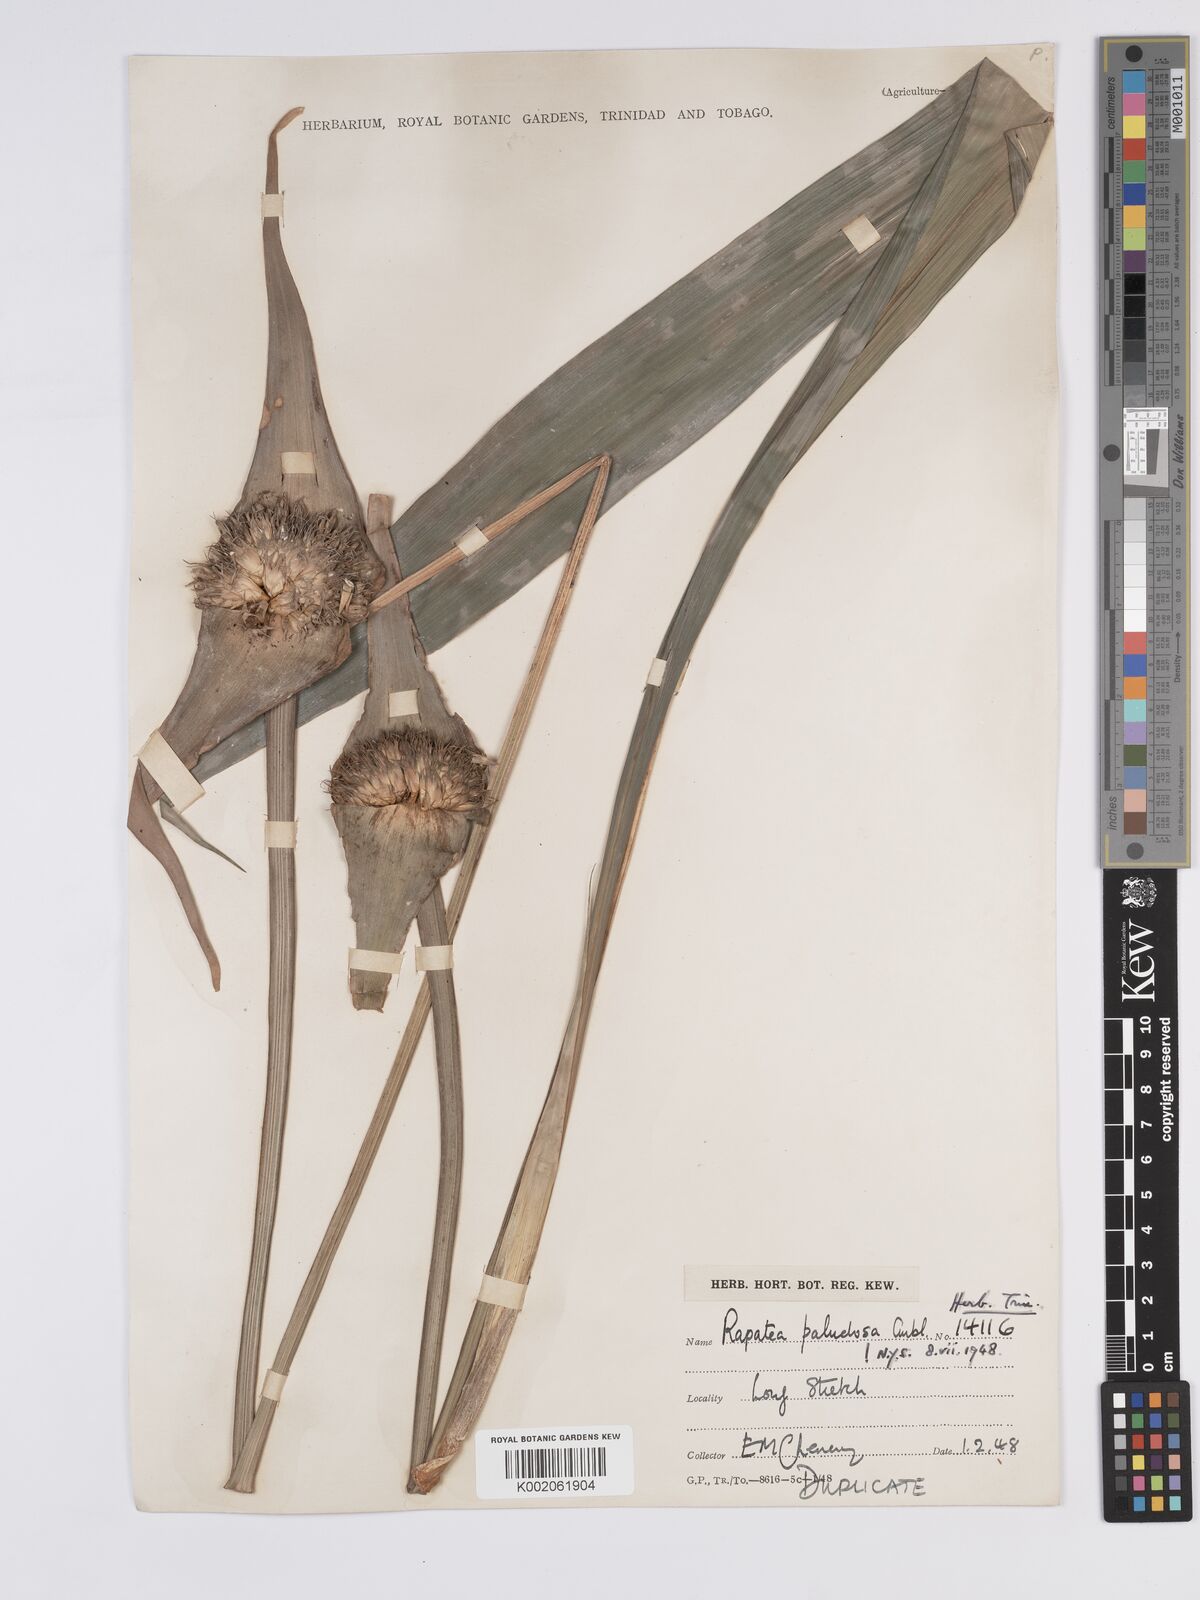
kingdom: Plantae
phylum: Tracheophyta
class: Liliopsida
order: Poales
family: Rapateaceae
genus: Rapatea
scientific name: Rapatea paludosa
